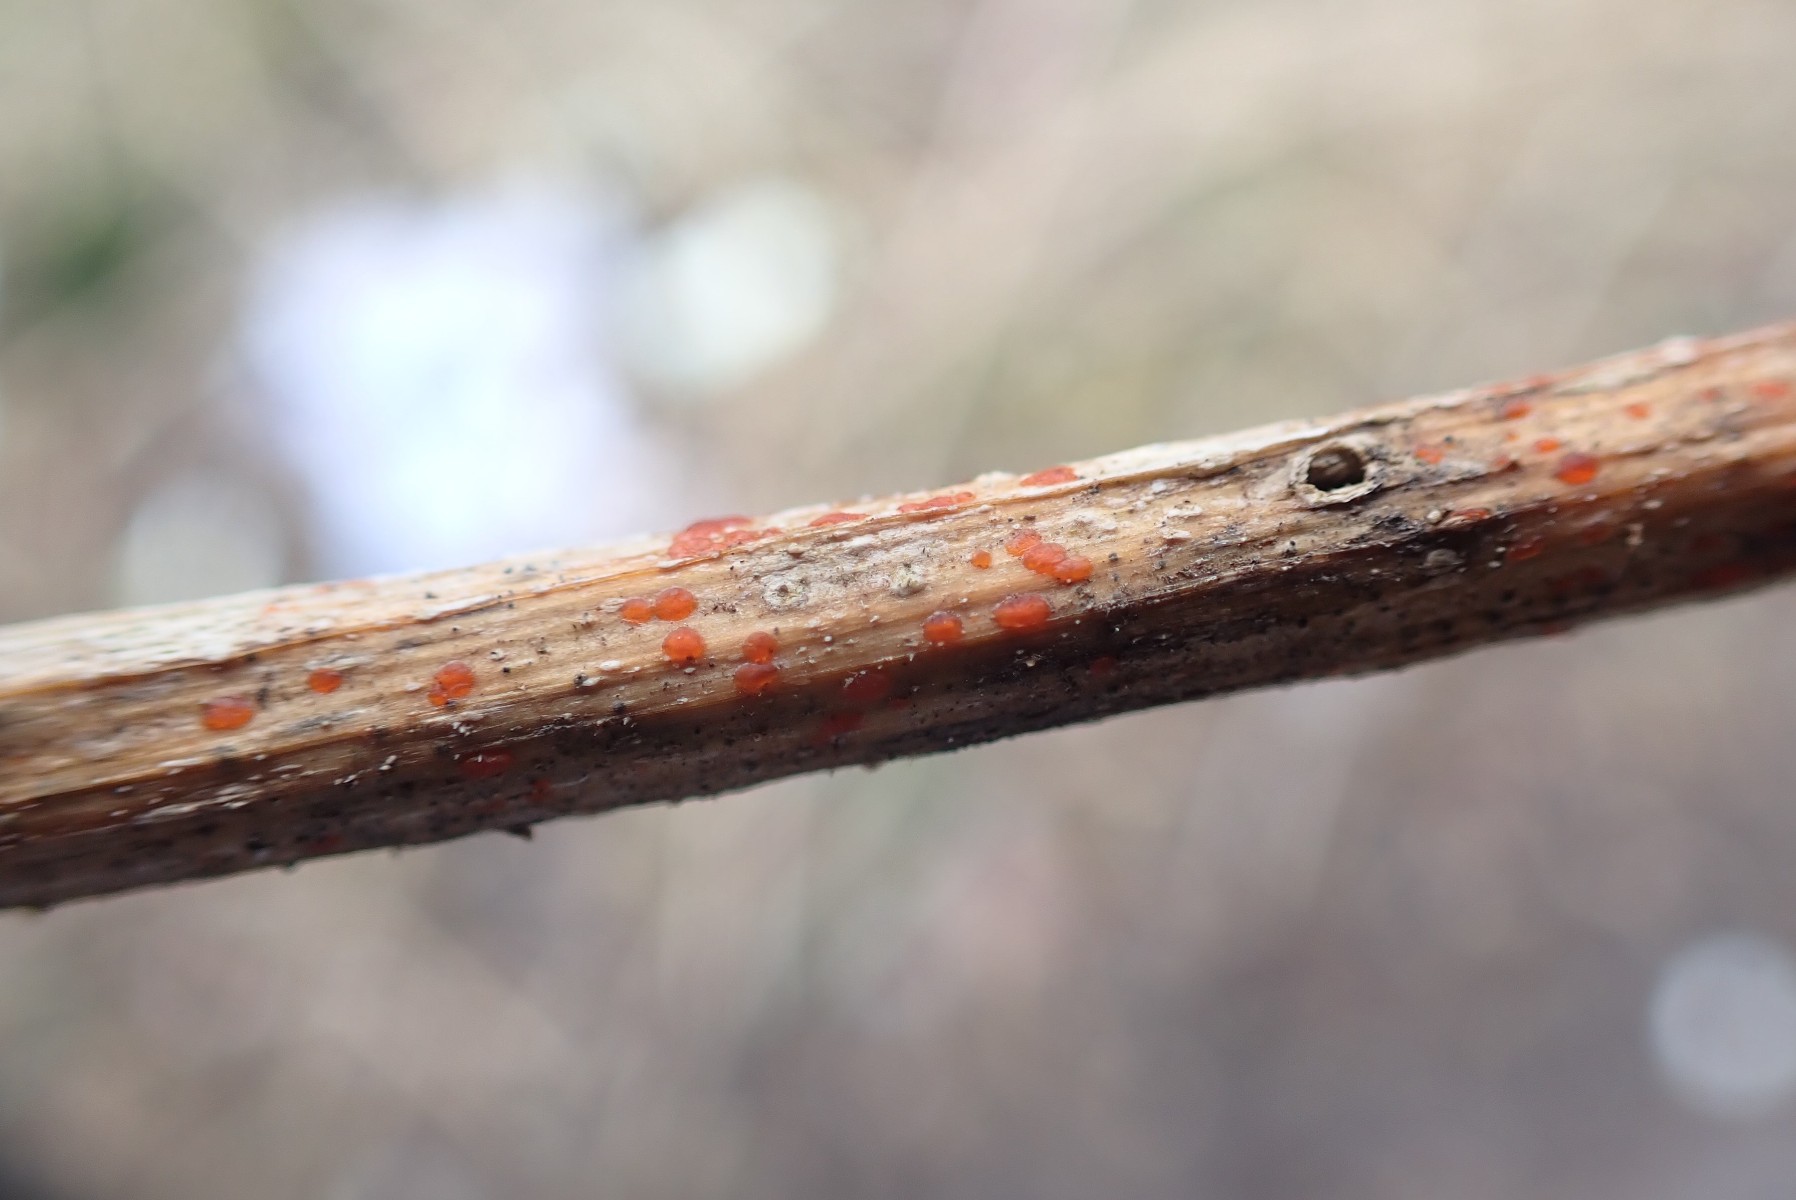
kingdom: Fungi
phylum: Ascomycota
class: Leotiomycetes
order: Helotiales
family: Calloriaceae
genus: Calloria
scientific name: Calloria urticae
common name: nælde-orangeskive
